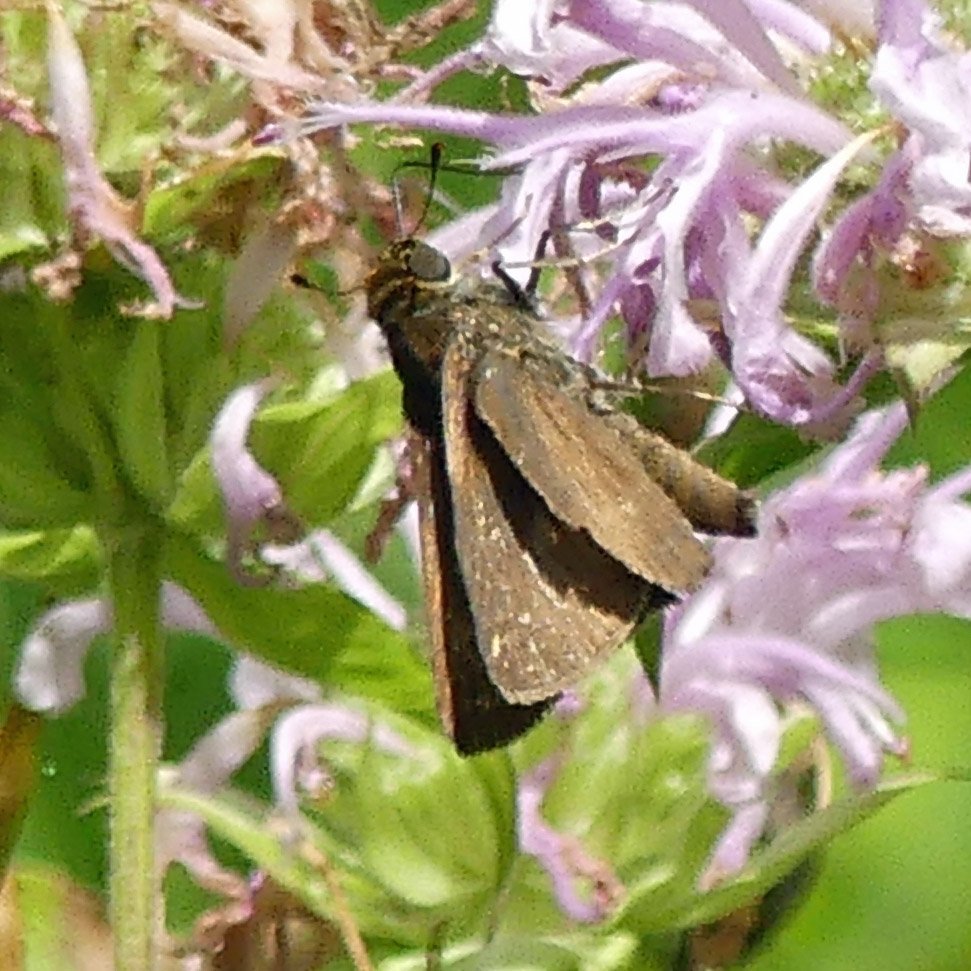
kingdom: Animalia
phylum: Arthropoda
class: Insecta
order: Lepidoptera
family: Hesperiidae
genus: Euphyes
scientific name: Euphyes vestris
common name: Dun Skipper
